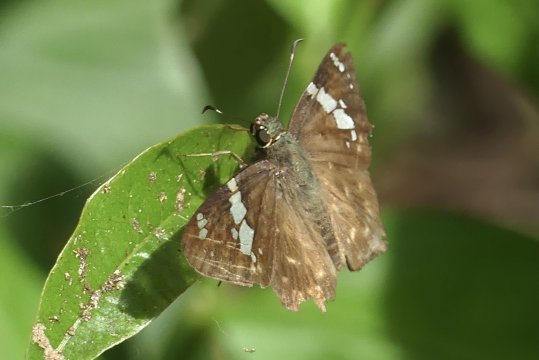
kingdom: Animalia
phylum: Arthropoda
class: Insecta
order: Lepidoptera
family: Hesperiidae
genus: Celaenorrhinus
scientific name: Celaenorrhinus eligius
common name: Eligius Flat
